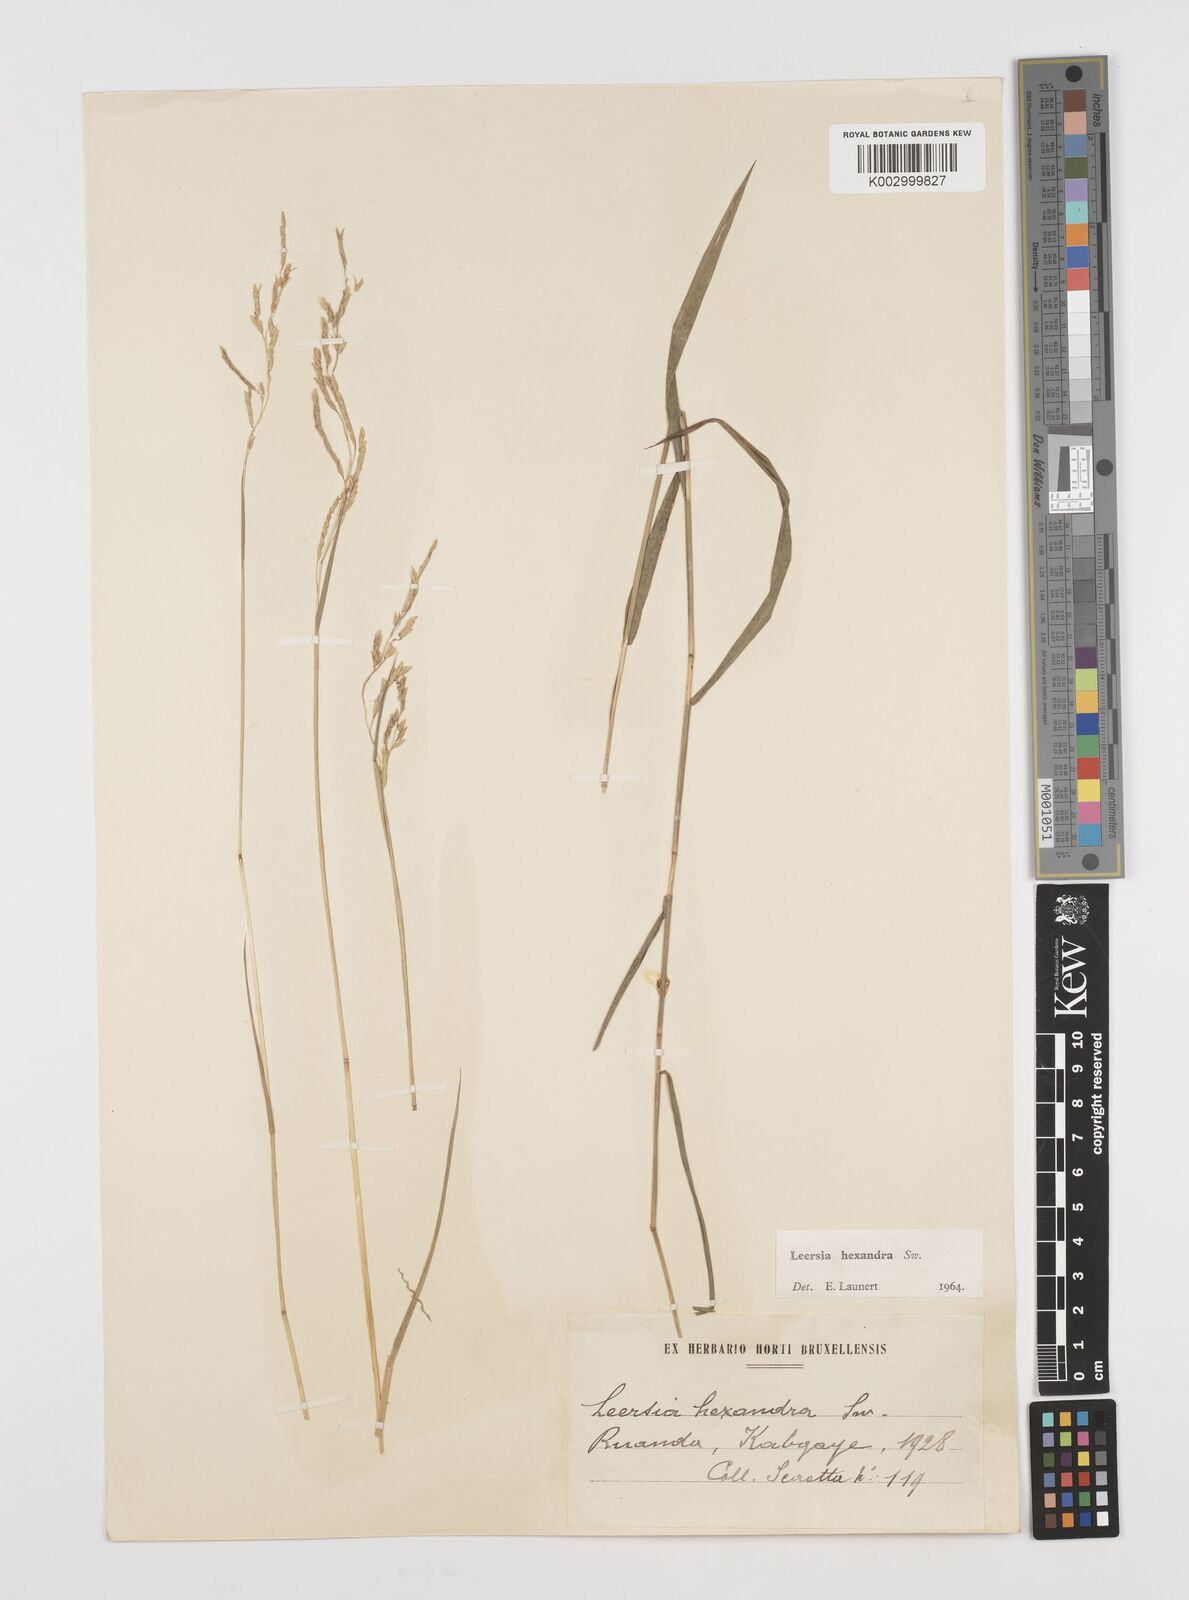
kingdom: Plantae
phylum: Tracheophyta
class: Liliopsida
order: Poales
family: Poaceae
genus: Leersia
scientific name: Leersia hexandra
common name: Southern cut grass
